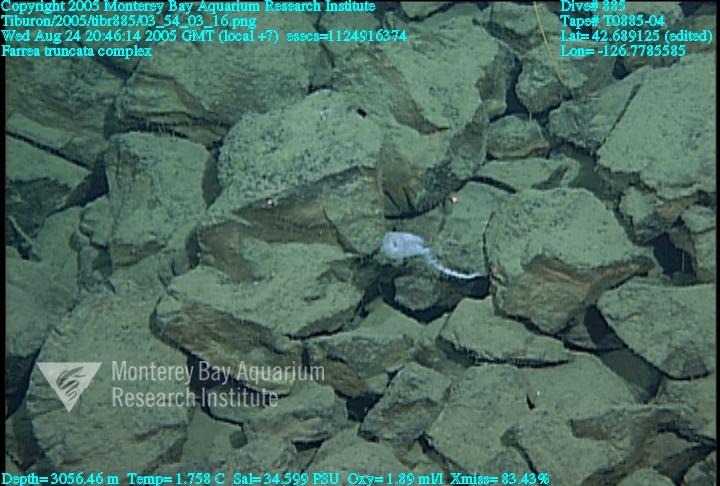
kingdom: Animalia
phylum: Porifera
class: Hexactinellida
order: Sceptrulophora
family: Farreidae
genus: Farrea
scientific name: Farrea truncata
